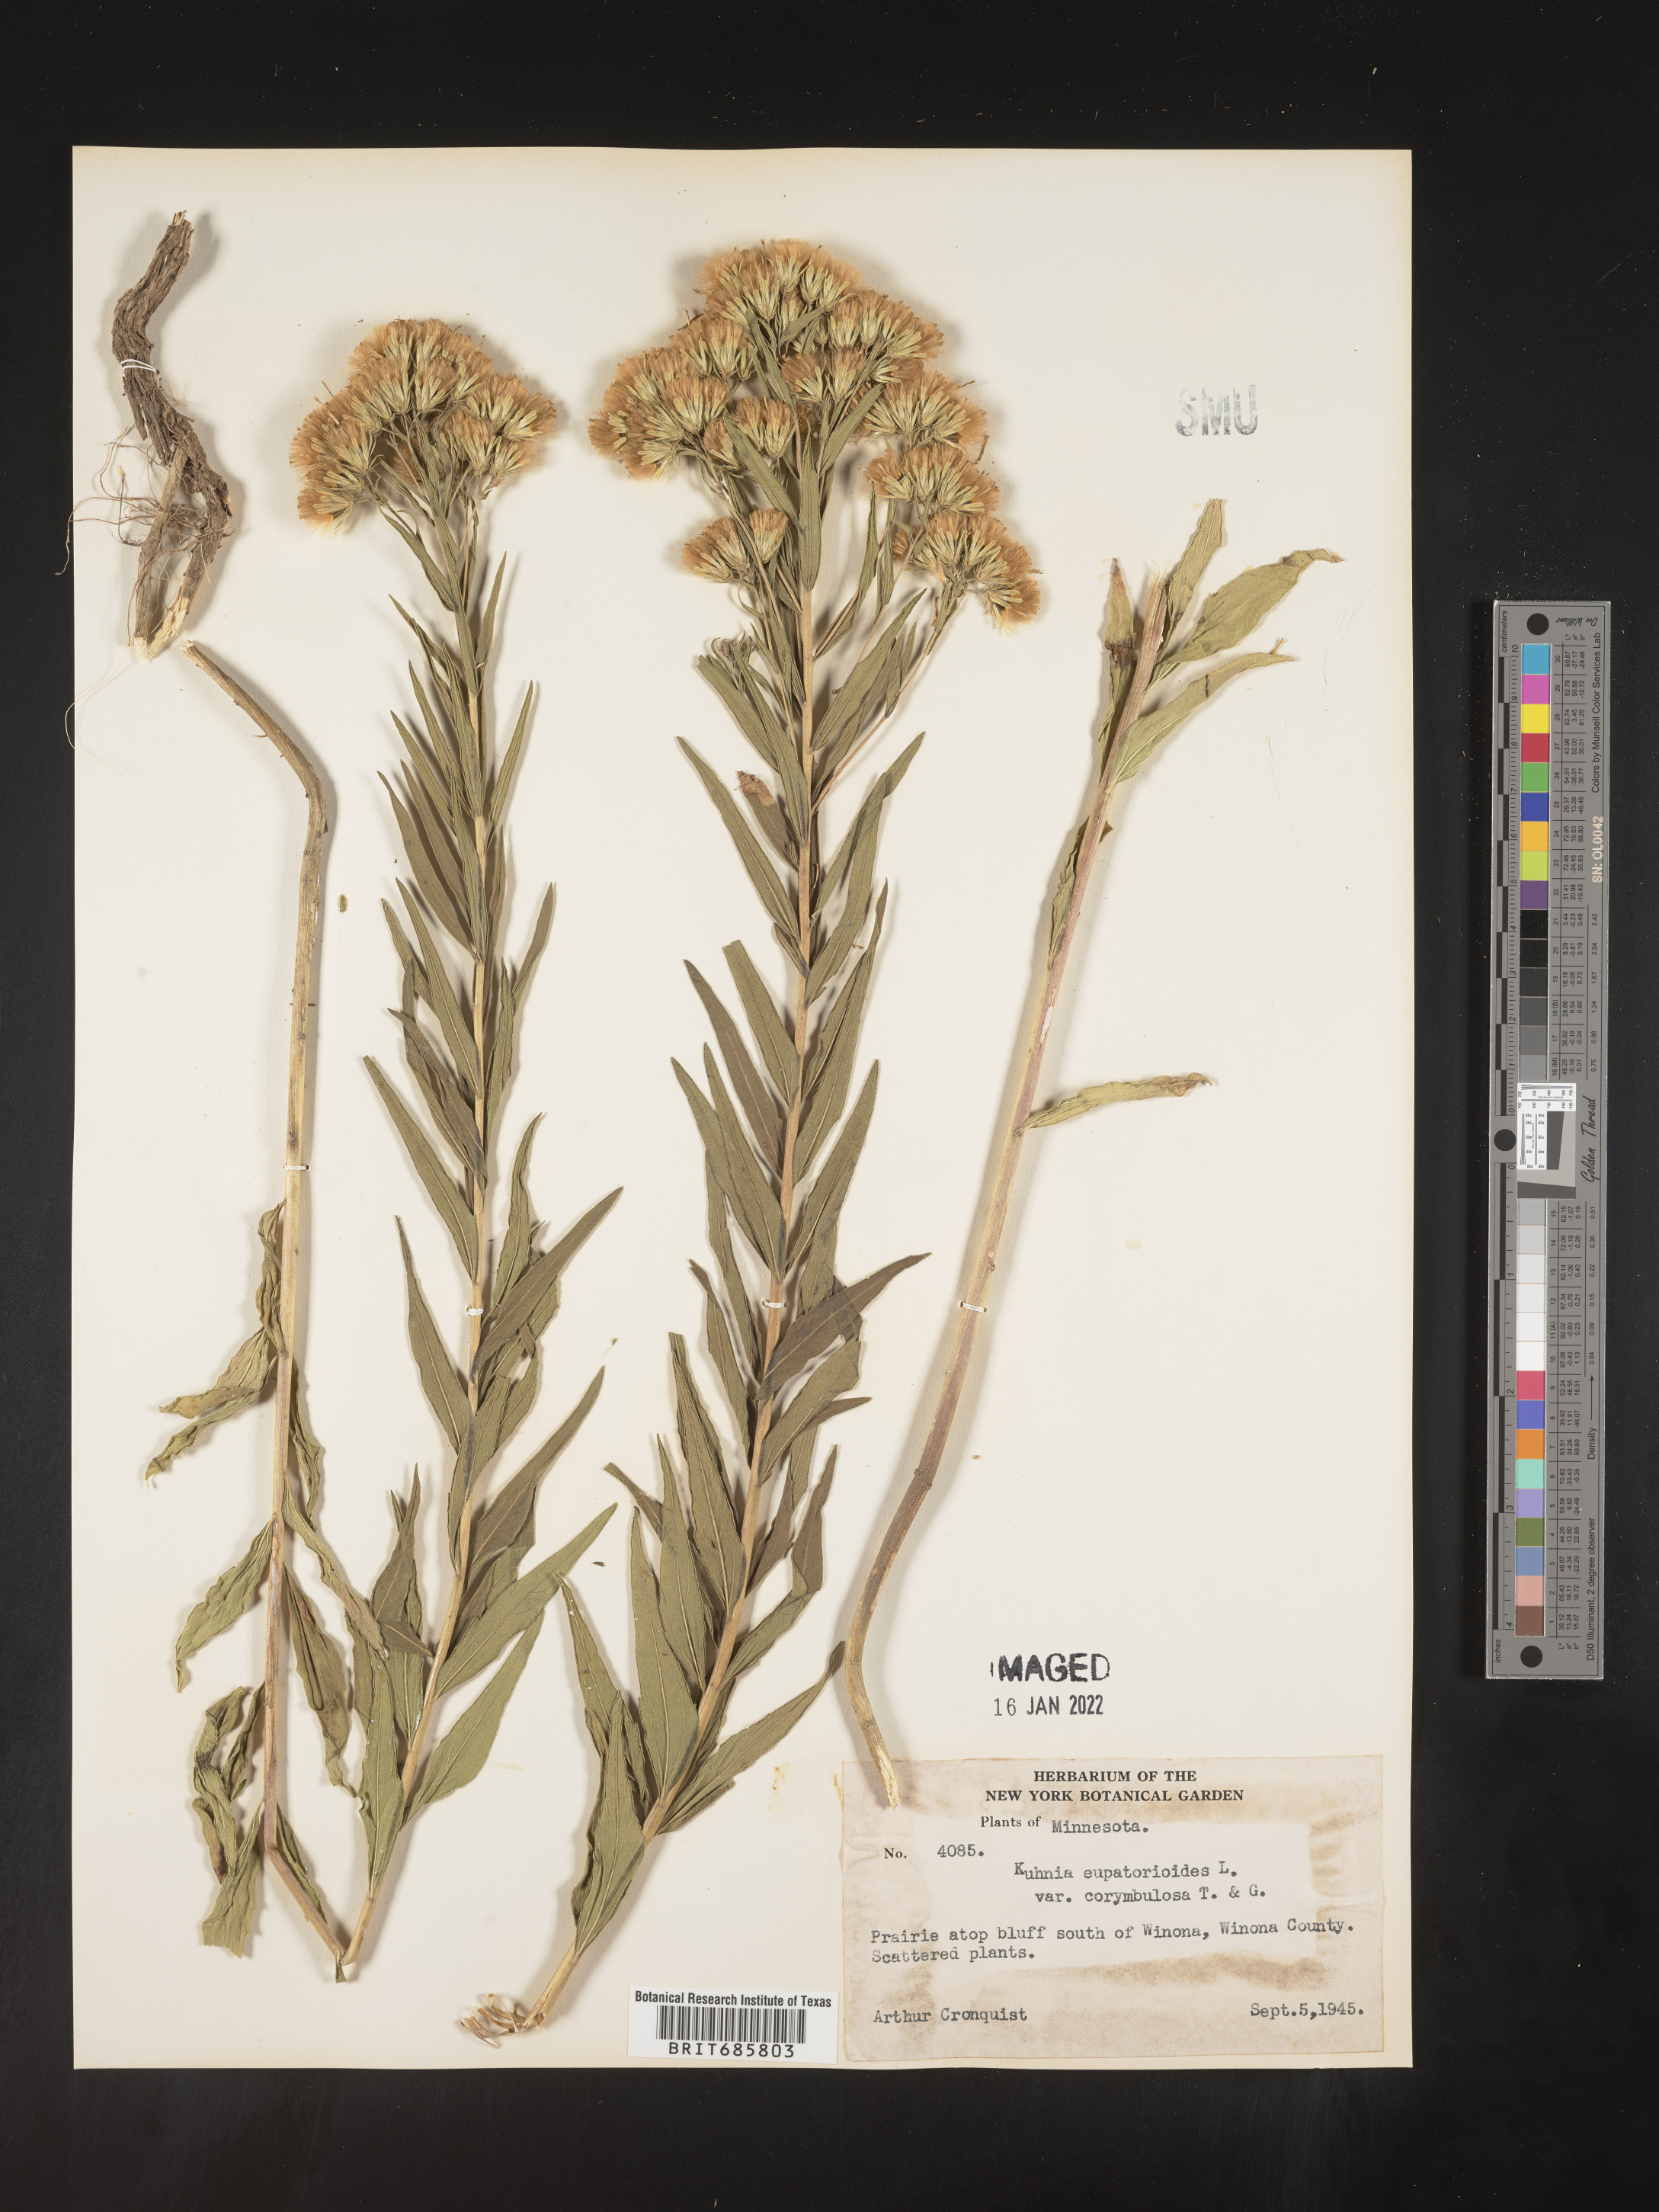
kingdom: Plantae
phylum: Tracheophyta
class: Magnoliopsida
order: Asterales
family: Asteraceae
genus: Brickellia
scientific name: Brickellia eupatorioides
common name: False boneset
